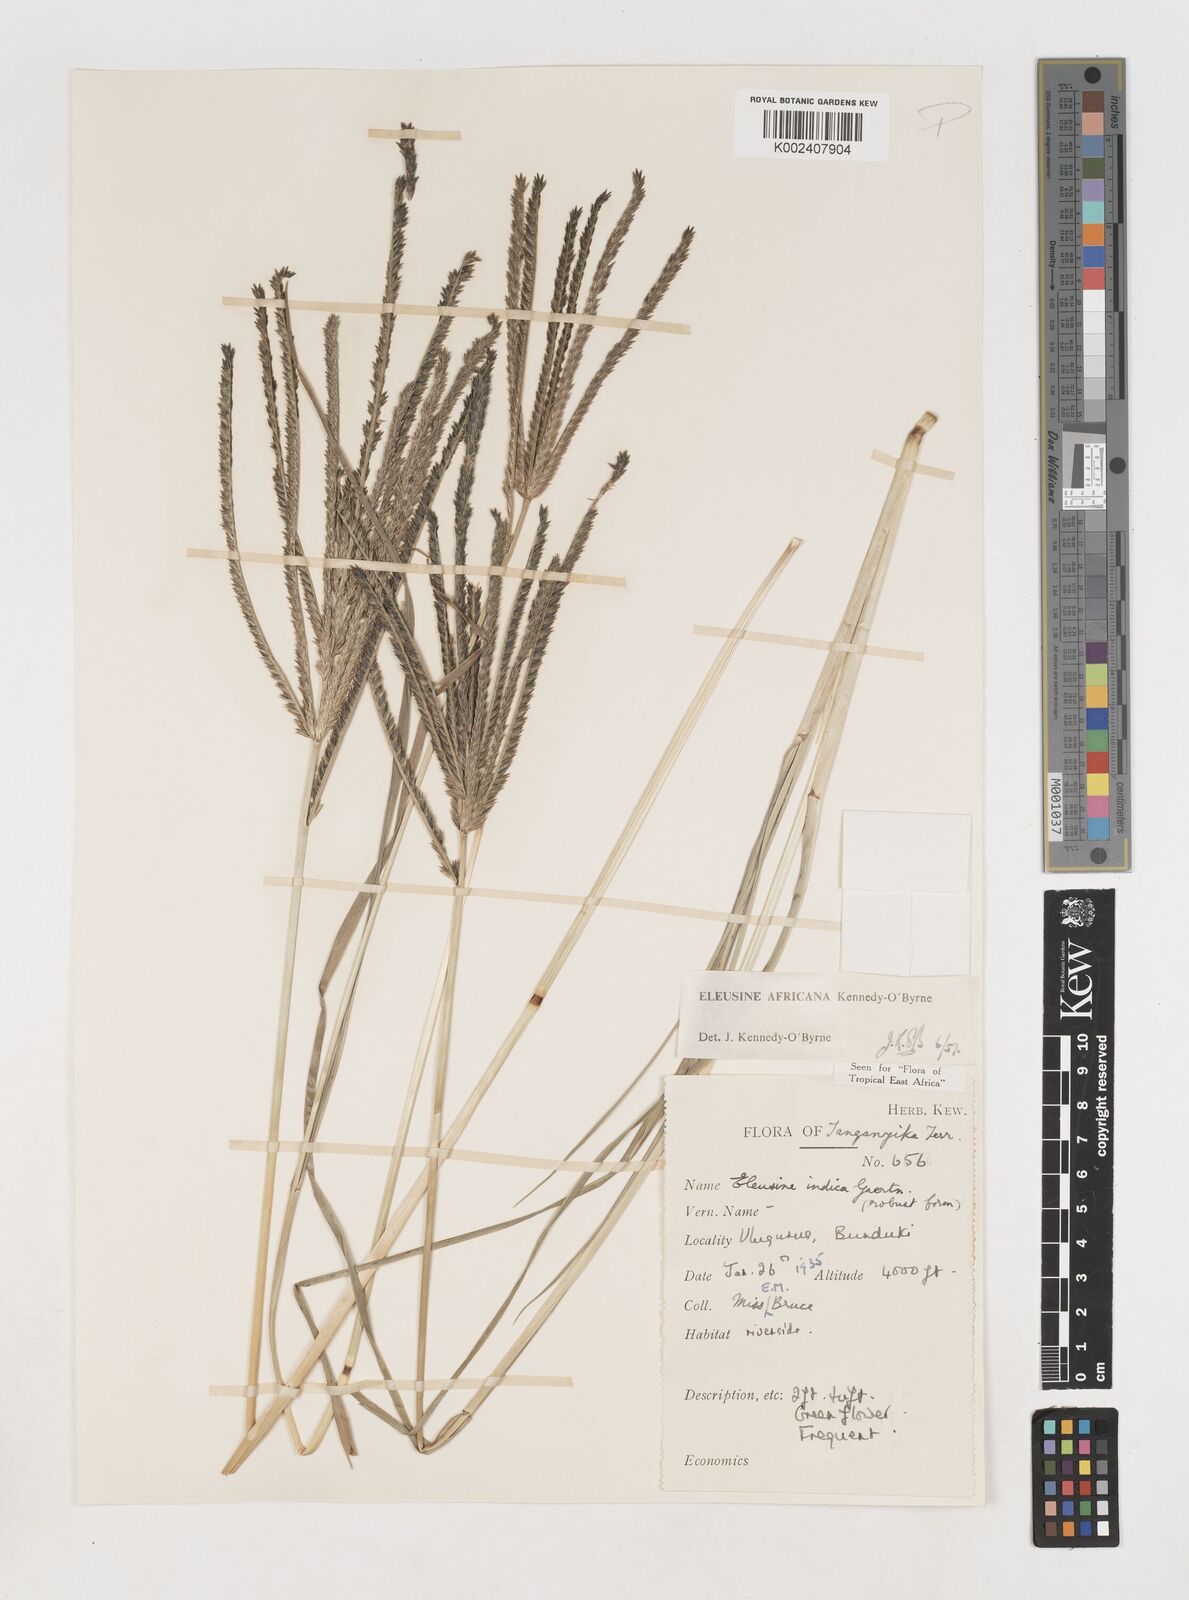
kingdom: Plantae
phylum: Tracheophyta
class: Liliopsida
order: Poales
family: Poaceae
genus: Eleusine
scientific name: Eleusine africana
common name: Wild african finger millet
